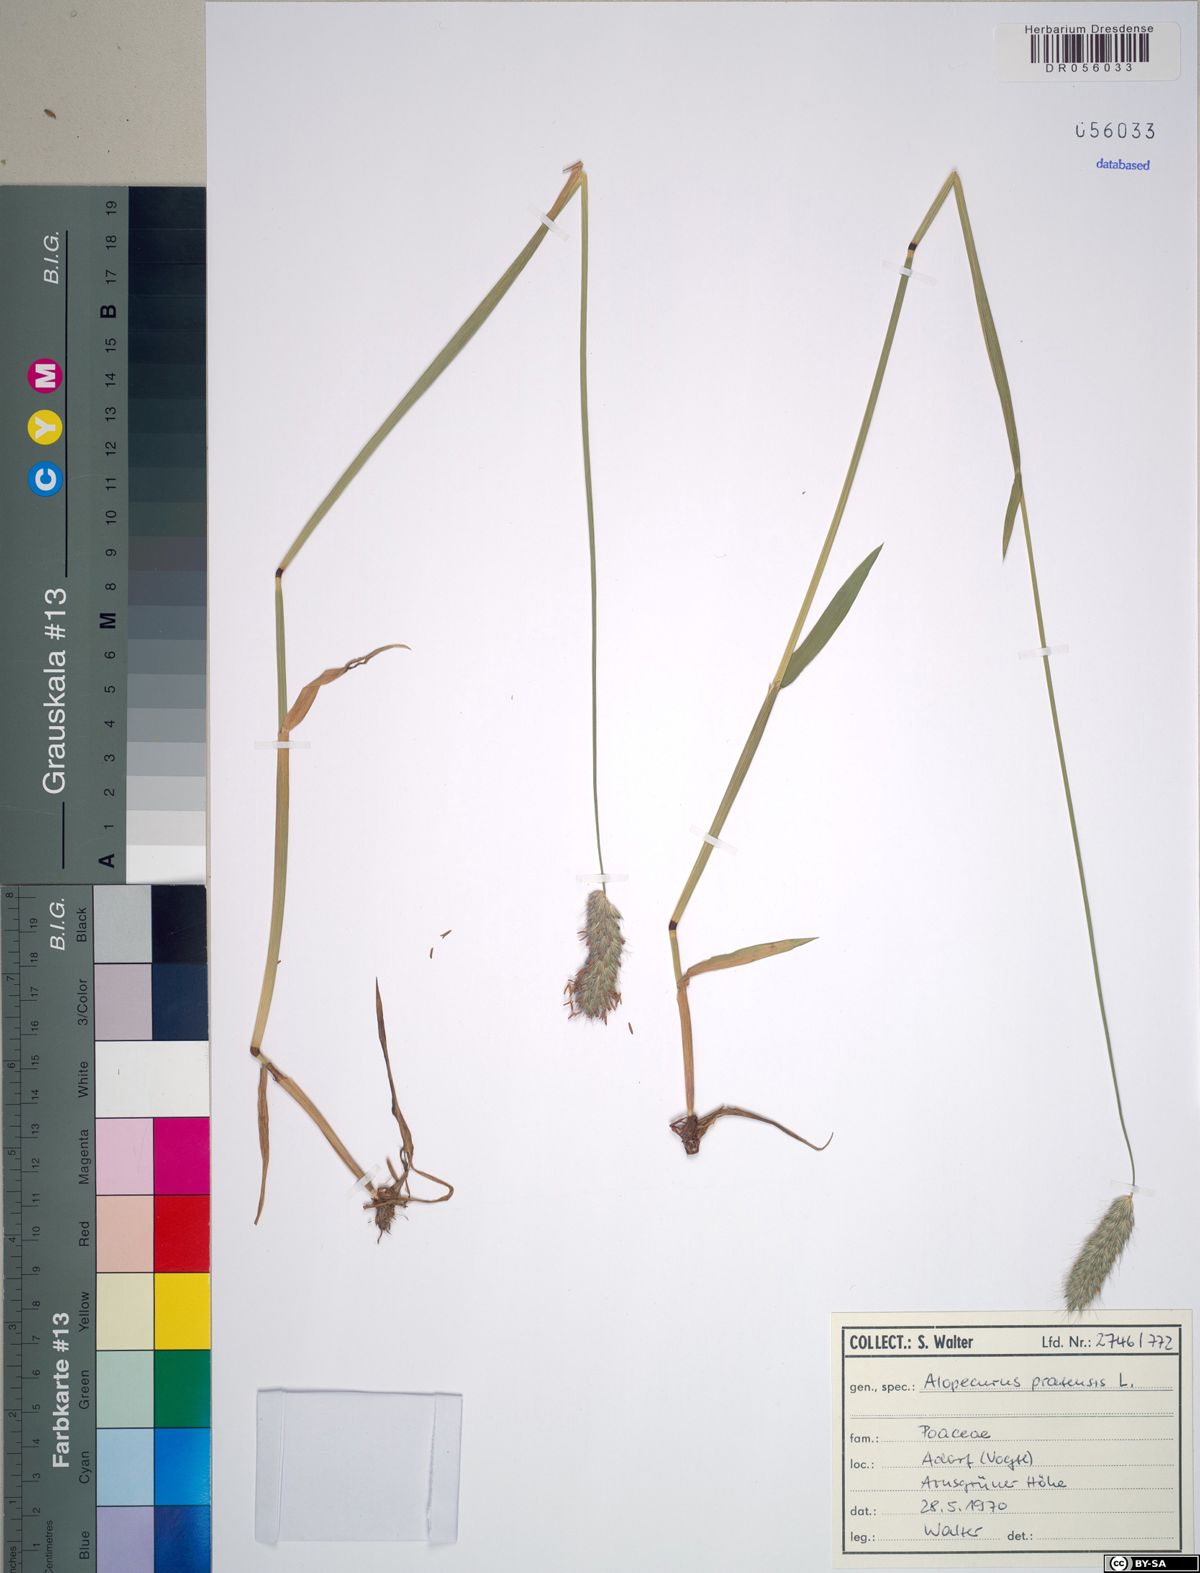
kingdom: Plantae
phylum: Tracheophyta
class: Liliopsida
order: Poales
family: Poaceae
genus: Alopecurus
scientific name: Alopecurus pratensis
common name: Meadow foxtail
